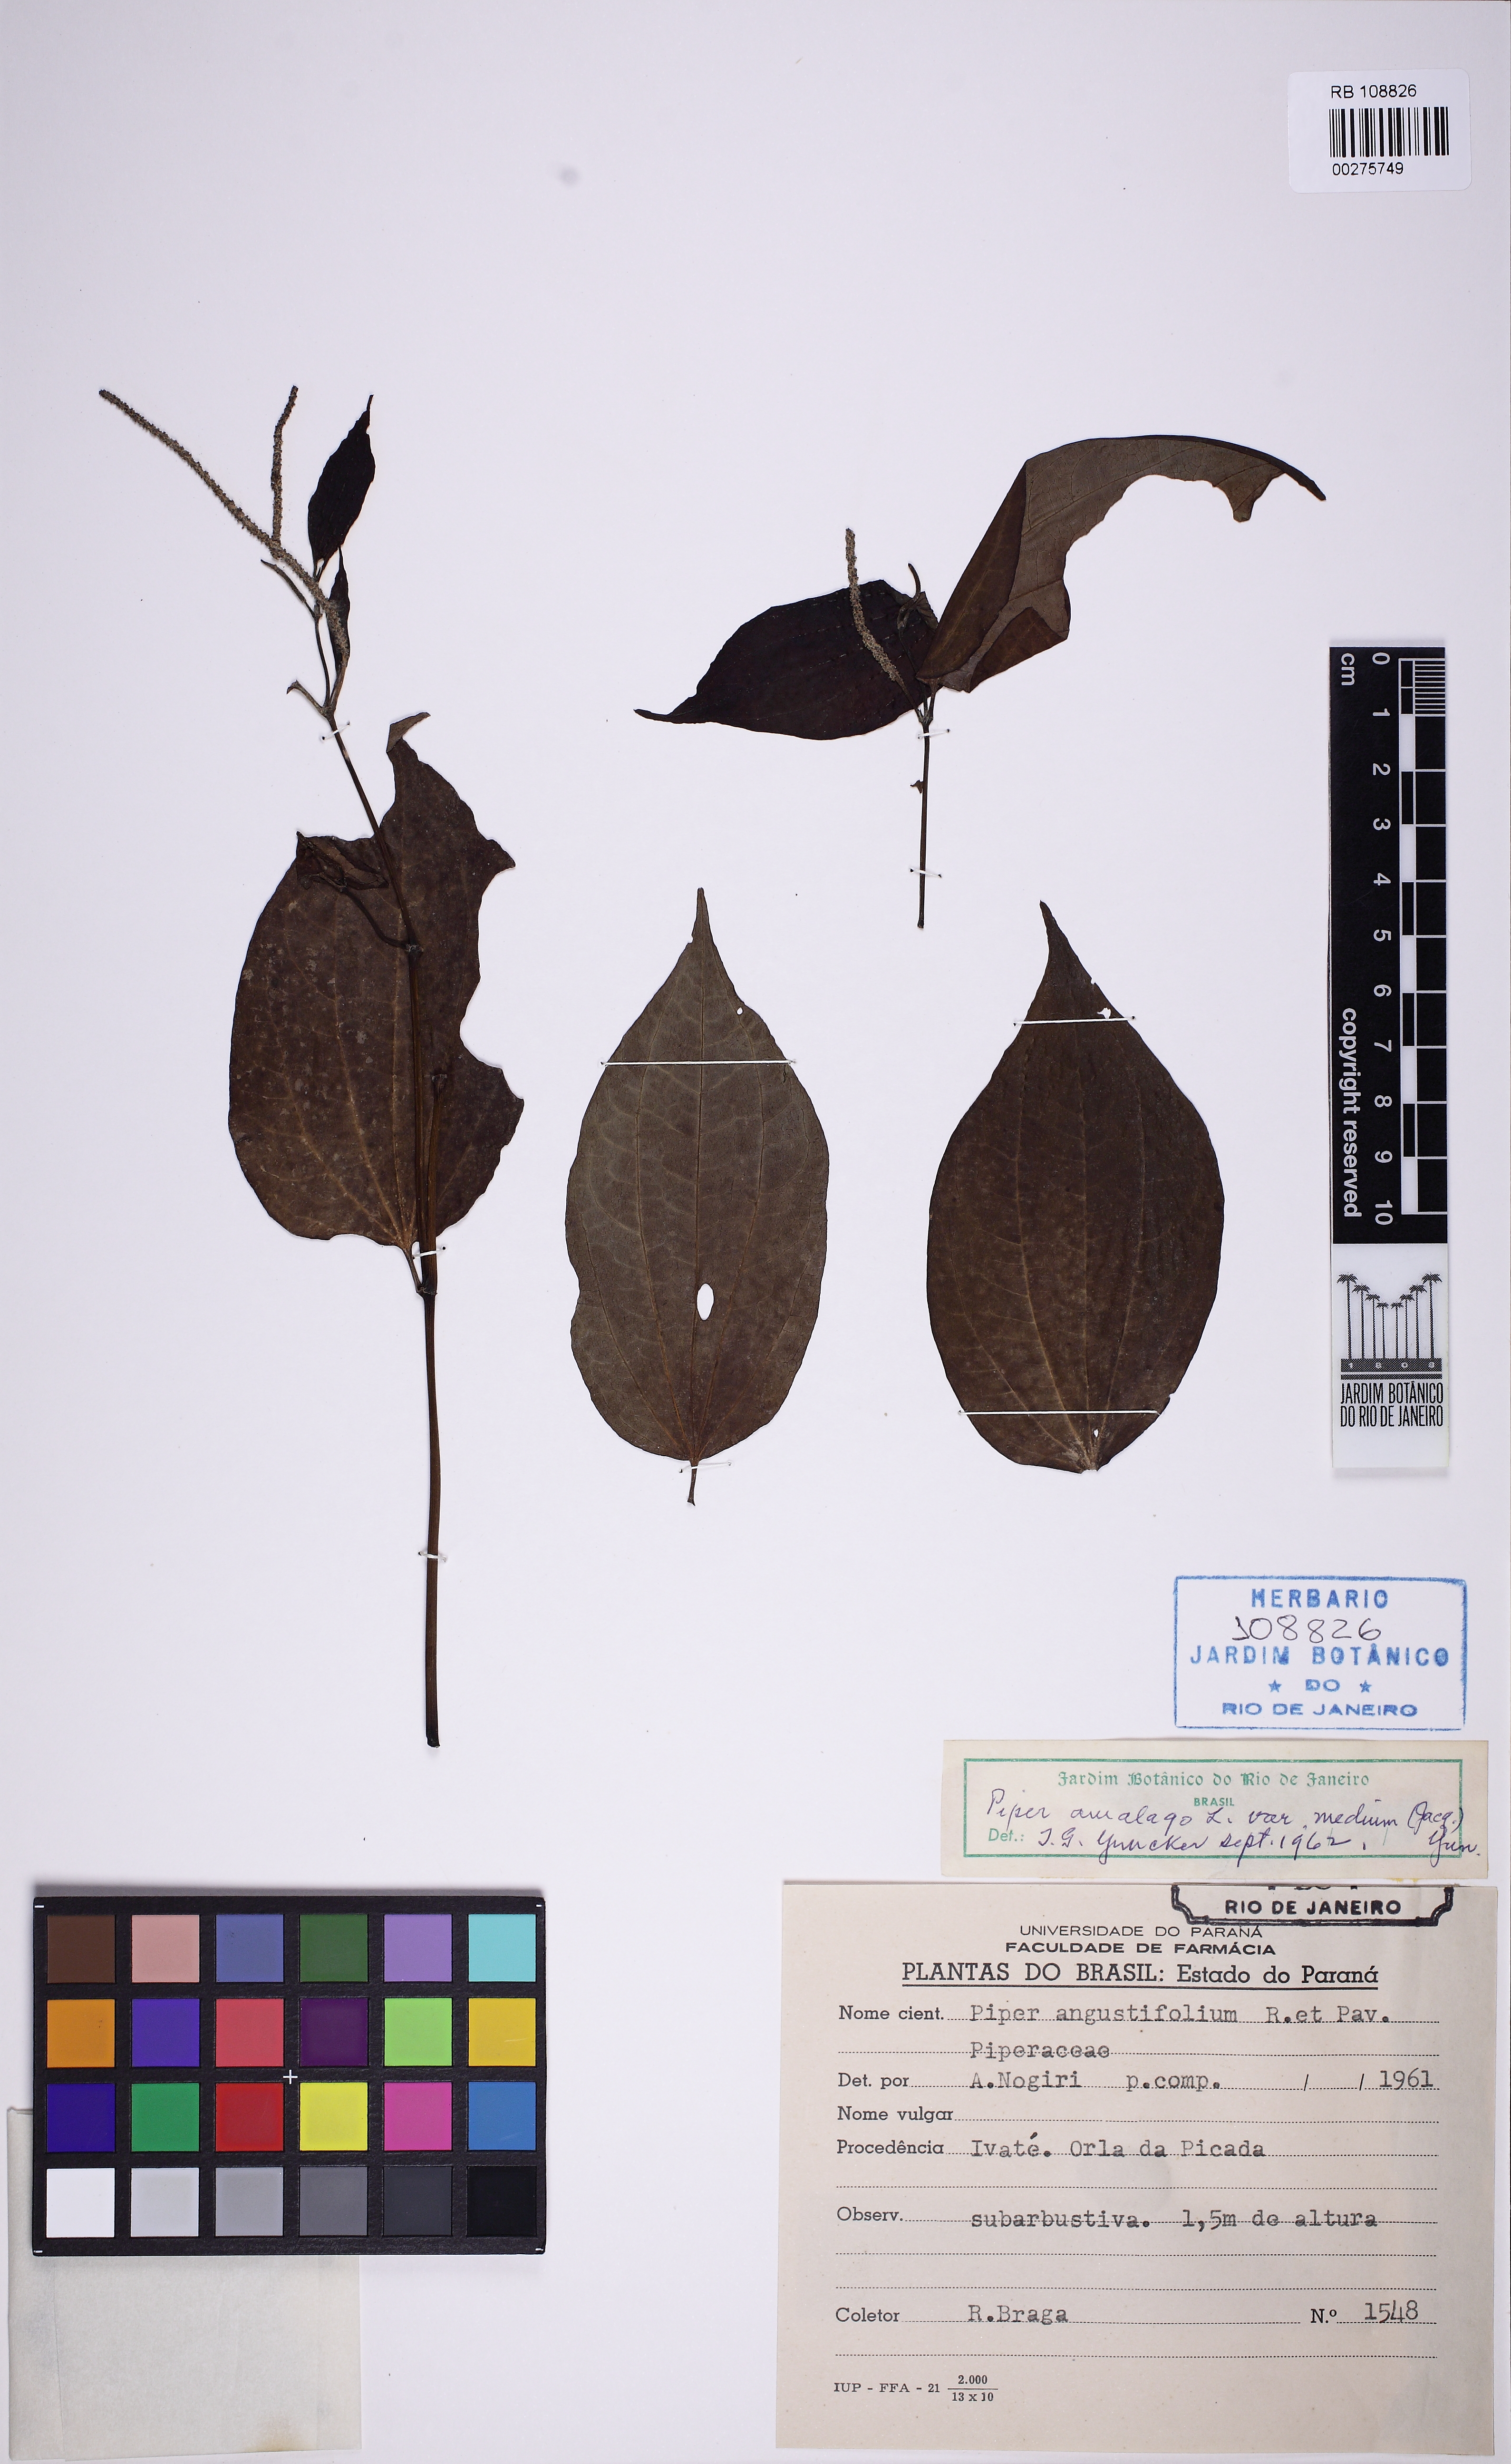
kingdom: Plantae
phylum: Tracheophyta
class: Magnoliopsida
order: Piperales
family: Piperaceae
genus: Piper
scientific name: Piper amalago
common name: Pepper-elder
